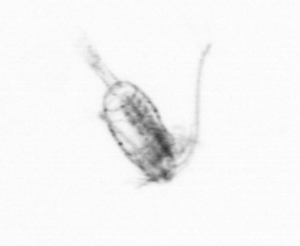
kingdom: Animalia
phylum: Arthropoda
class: Copepoda
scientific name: Copepoda
